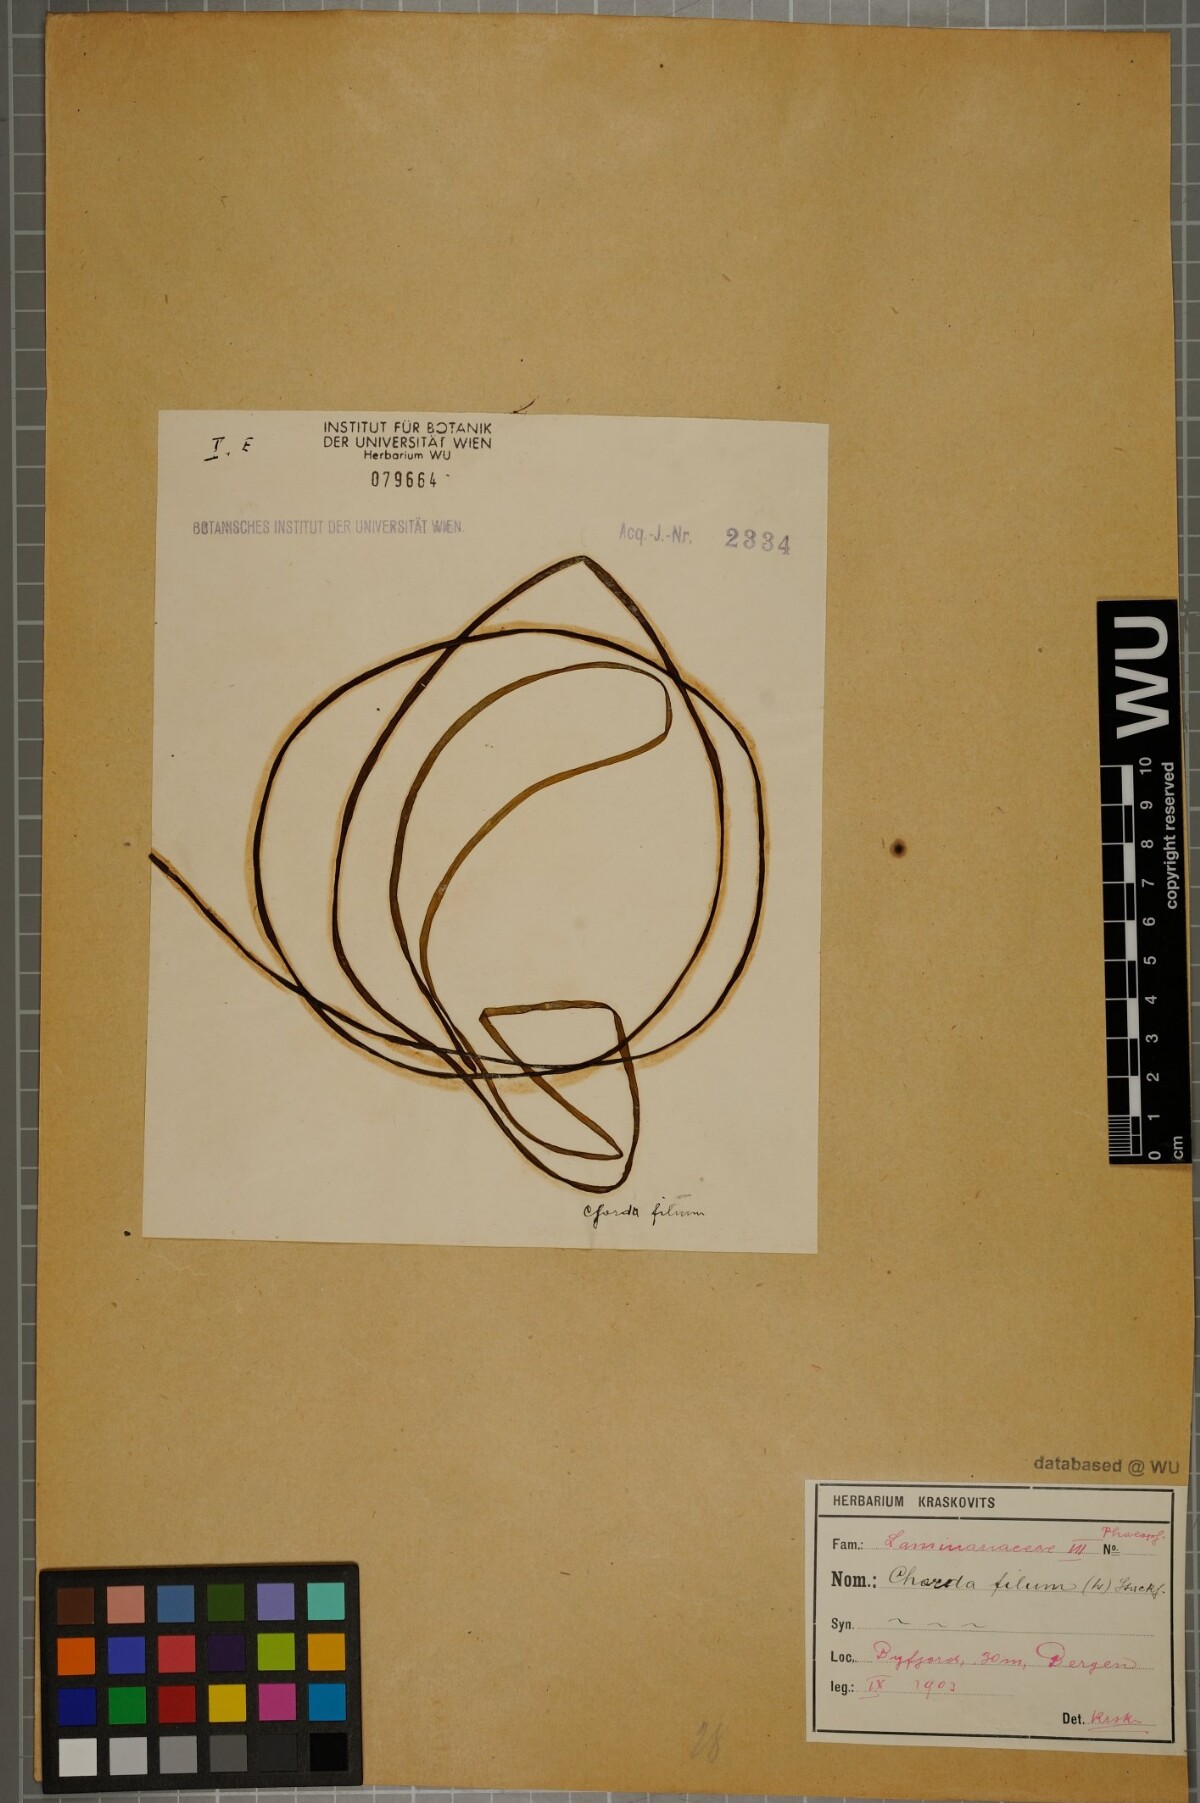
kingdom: Chromista
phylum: Ochrophyta
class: Phaeophyceae
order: Laminariales
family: Chordaceae
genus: Chorda
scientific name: Chorda filum
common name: Mermaid's tresses
